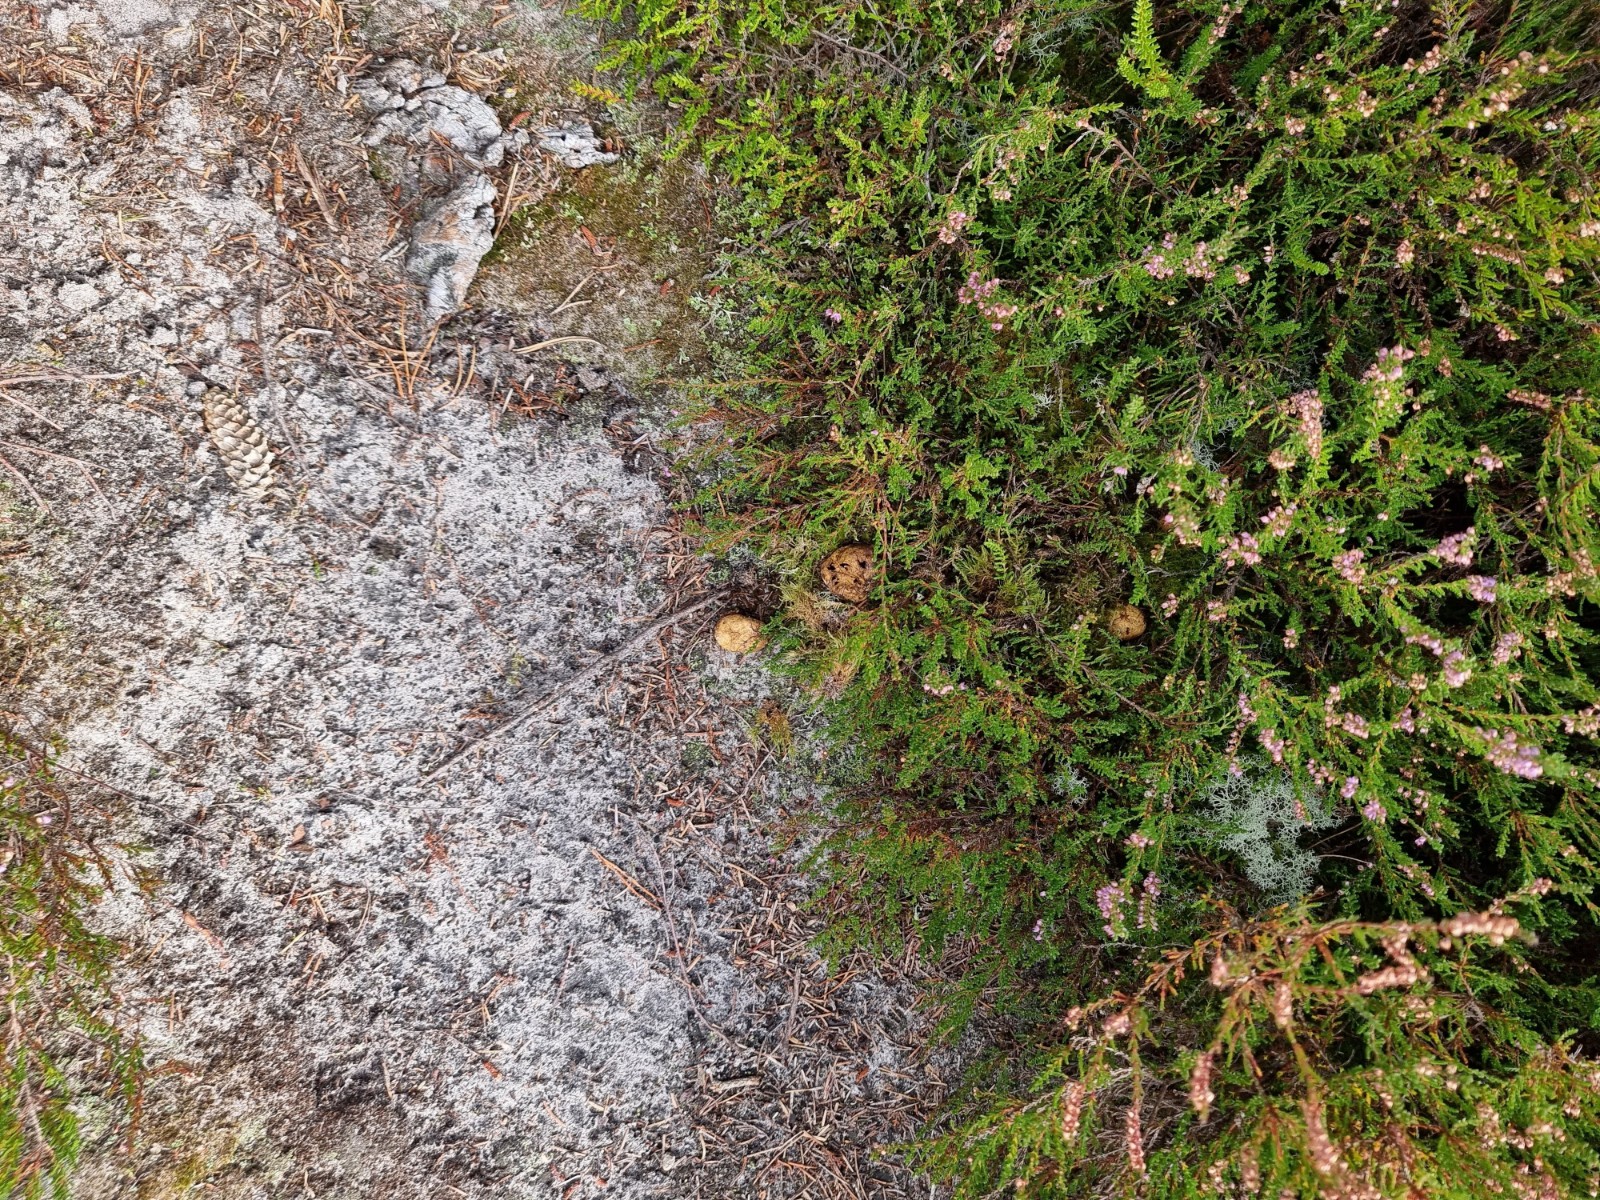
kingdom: Fungi
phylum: Basidiomycota
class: Agaricomycetes
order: Boletales
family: Rhizopogonaceae
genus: Rhizopogon
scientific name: Rhizopogon obtextus
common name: gul skægtrøffel
